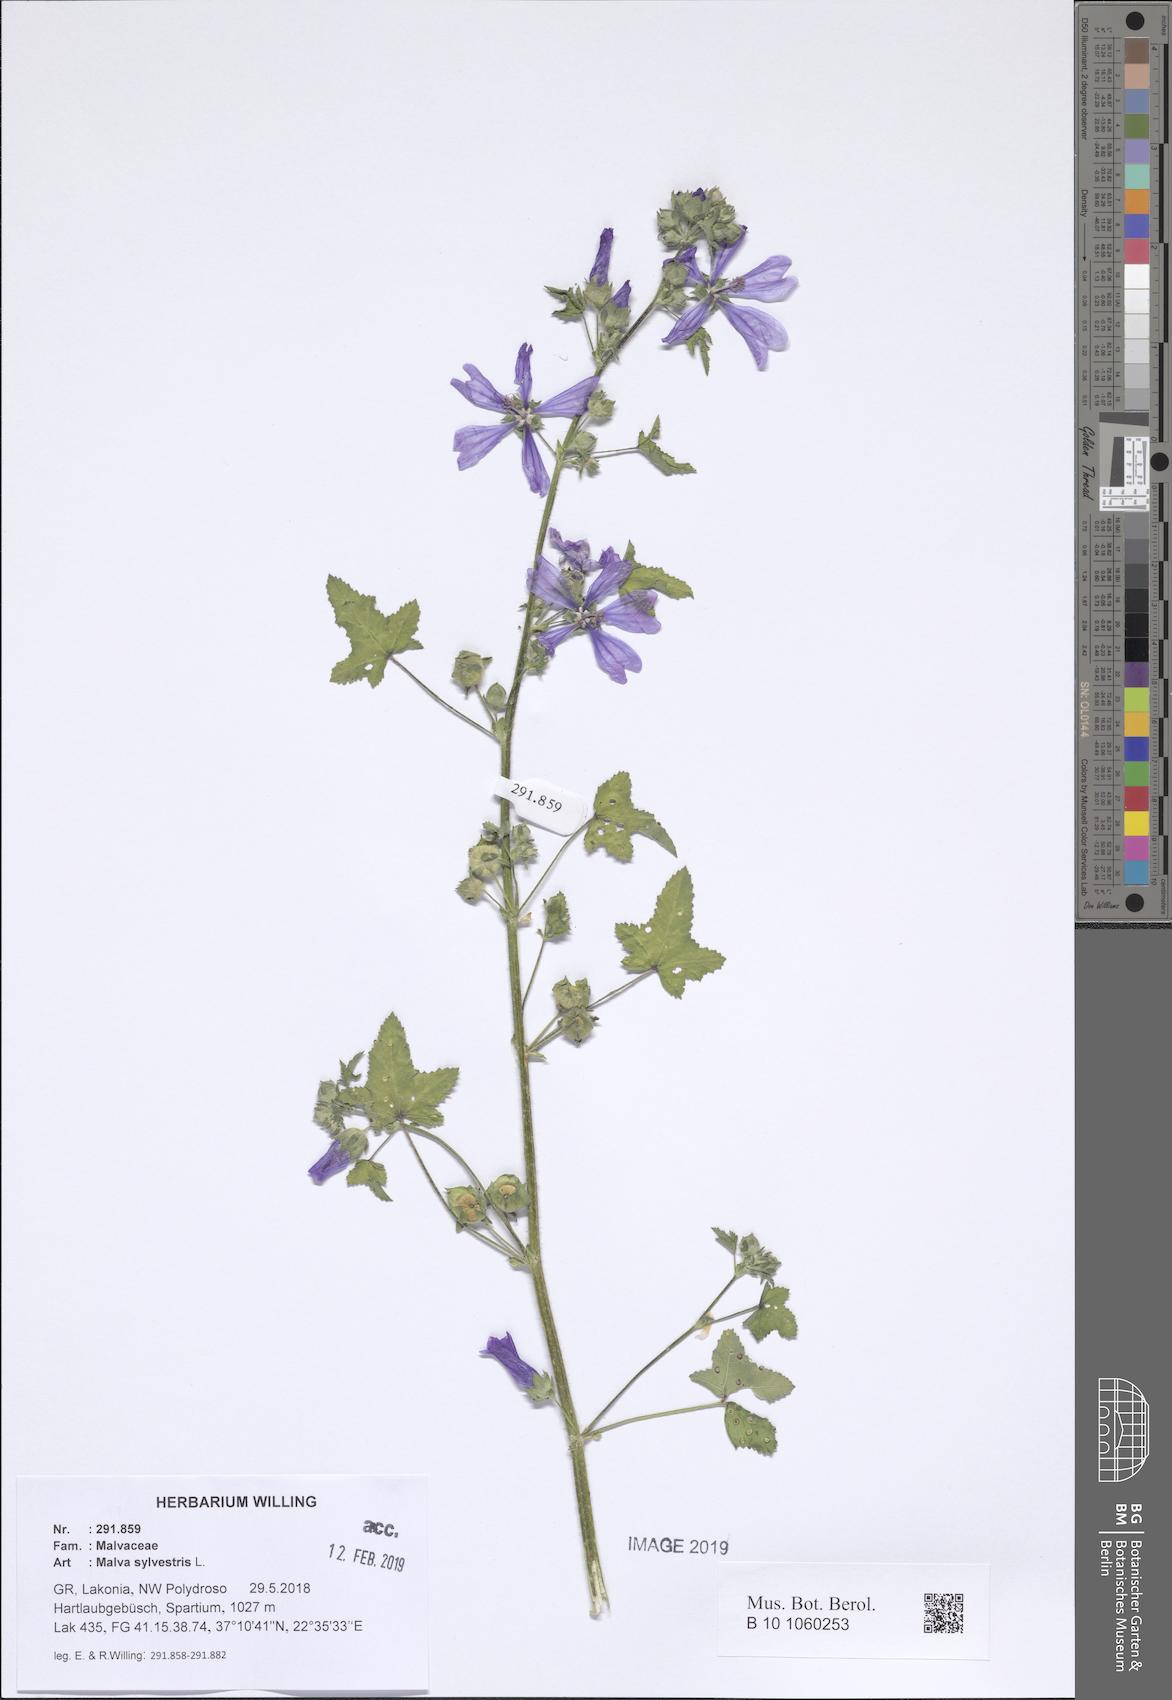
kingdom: Plantae
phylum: Tracheophyta
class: Magnoliopsida
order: Malvales
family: Malvaceae
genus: Malva
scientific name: Malva sylvestris
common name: Common mallow
